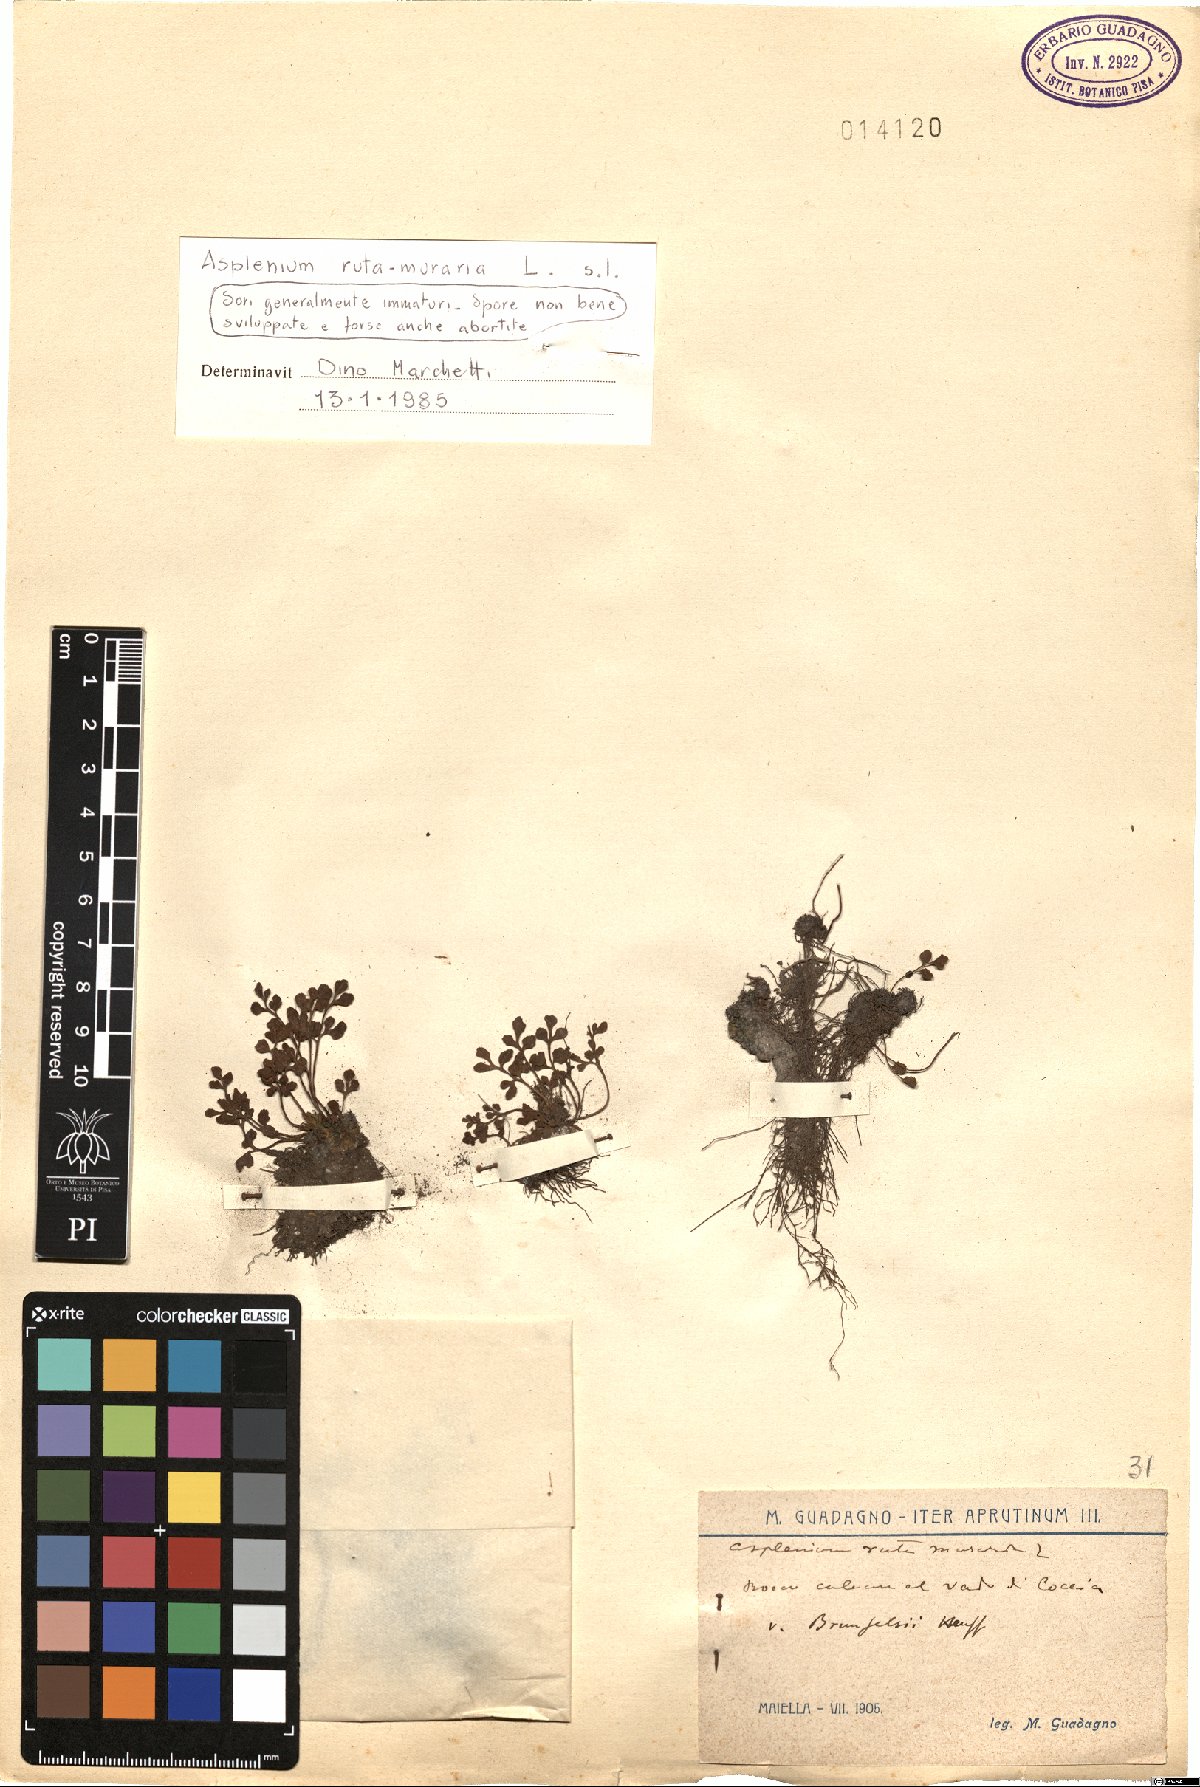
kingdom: Plantae
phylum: Tracheophyta
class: Polypodiopsida
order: Polypodiales
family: Aspleniaceae
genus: Asplenium
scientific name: Asplenium ruta-muraria
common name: Wall-rue
